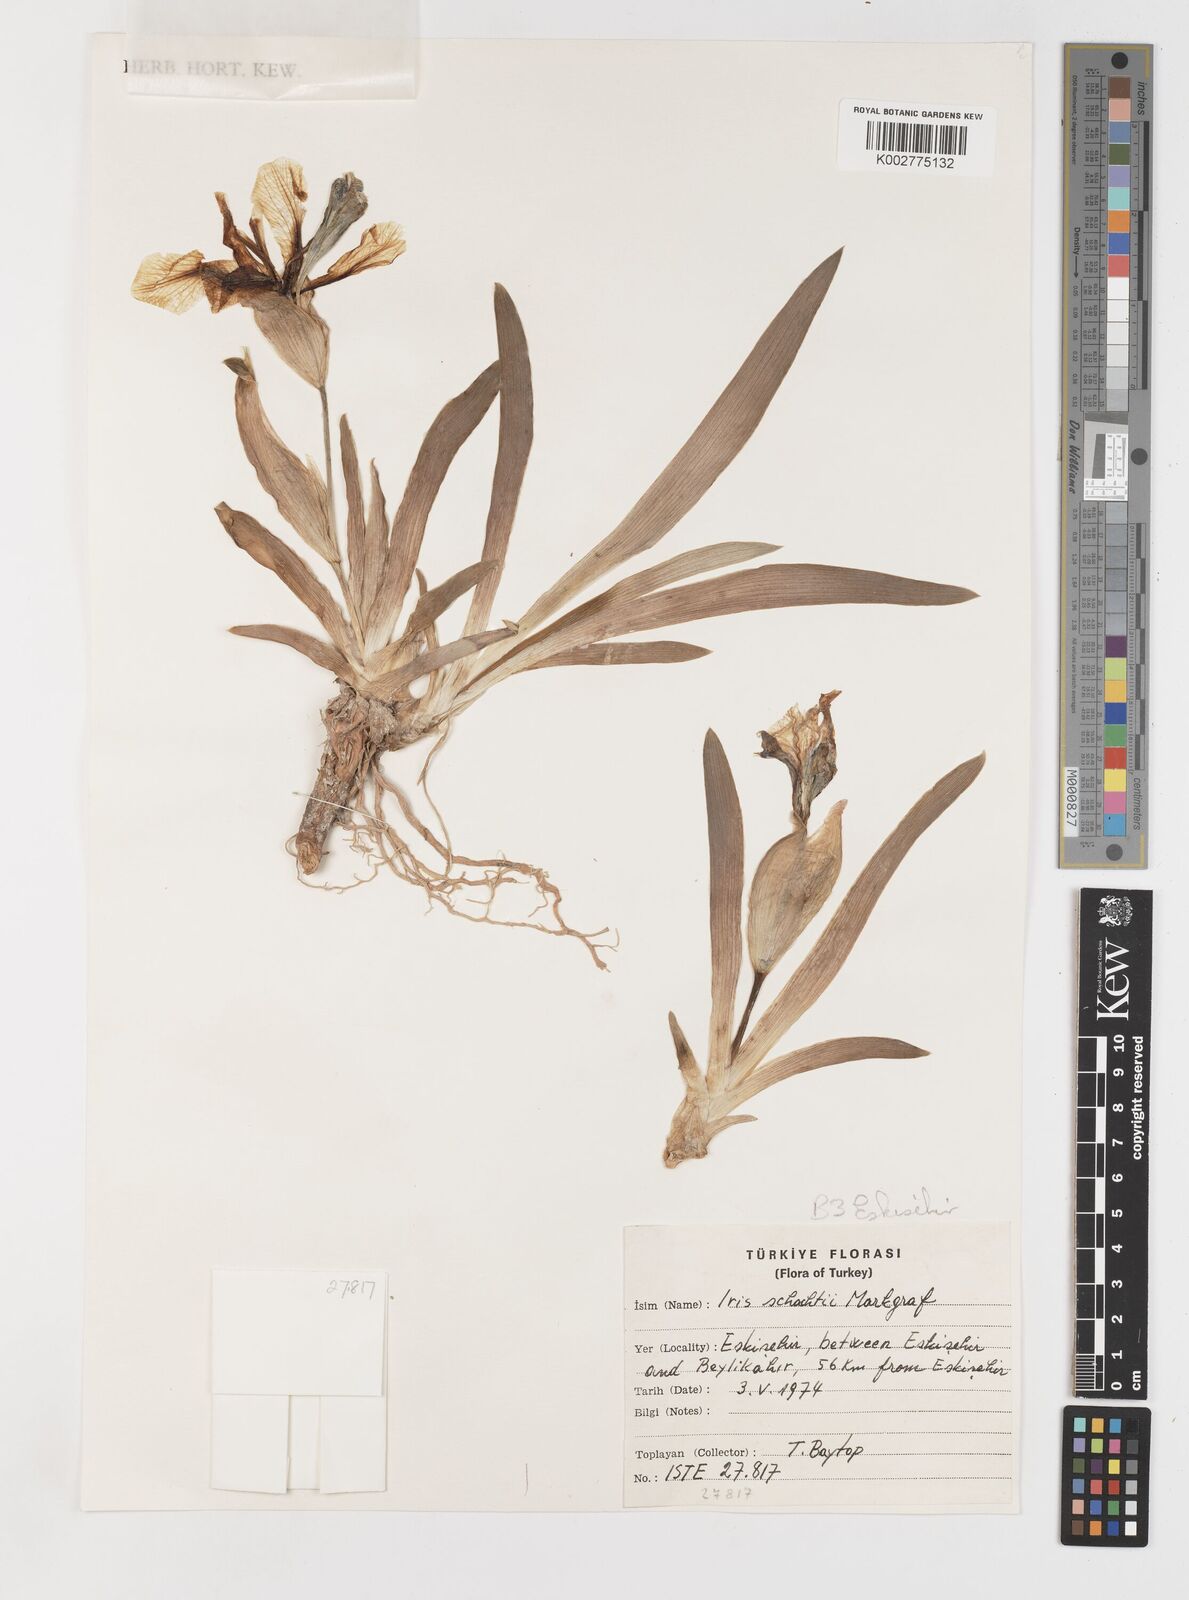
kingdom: Plantae
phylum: Tracheophyta
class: Liliopsida
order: Asparagales
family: Iridaceae
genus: Iris
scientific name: Iris schachtii
